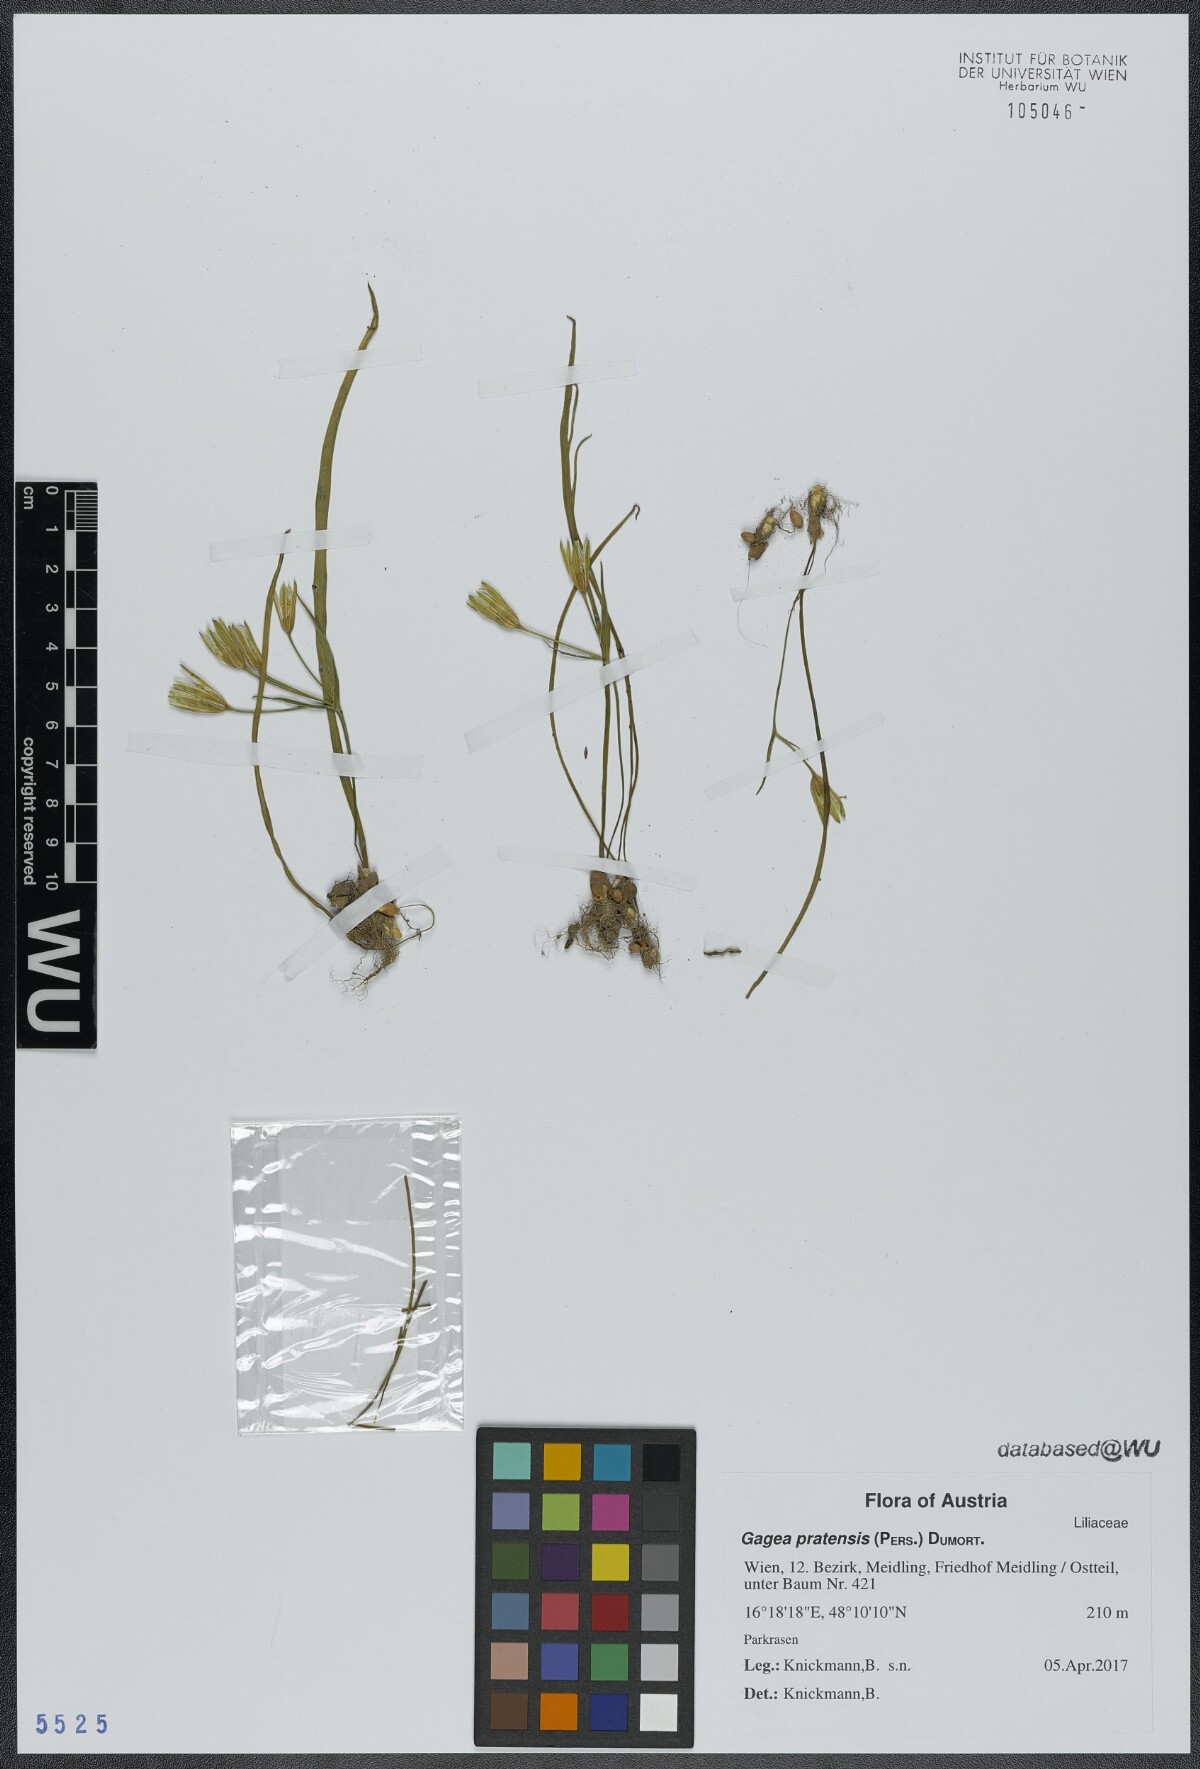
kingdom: Plantae
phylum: Tracheophyta
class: Liliopsida
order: Liliales
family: Liliaceae
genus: Gagea
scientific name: Gagea pratensis
